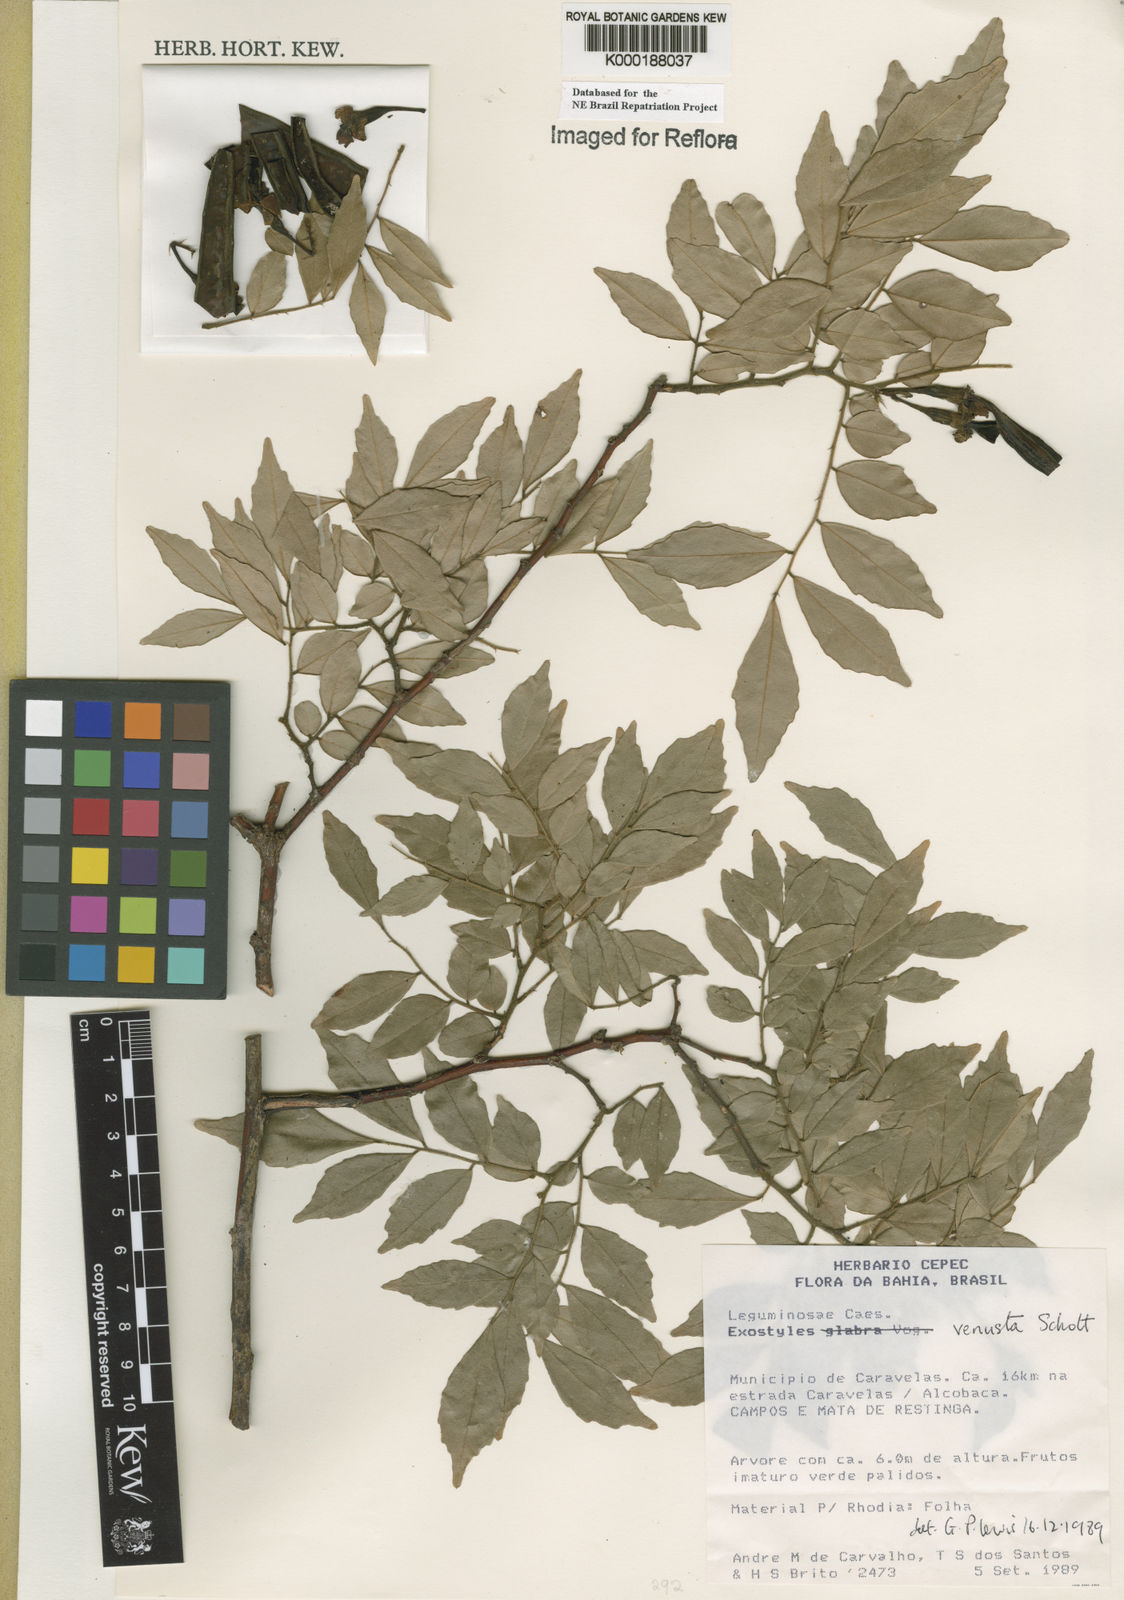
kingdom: Plantae
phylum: Tracheophyta
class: Magnoliopsida
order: Fabales
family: Fabaceae
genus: Exostyles
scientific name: Exostyles
